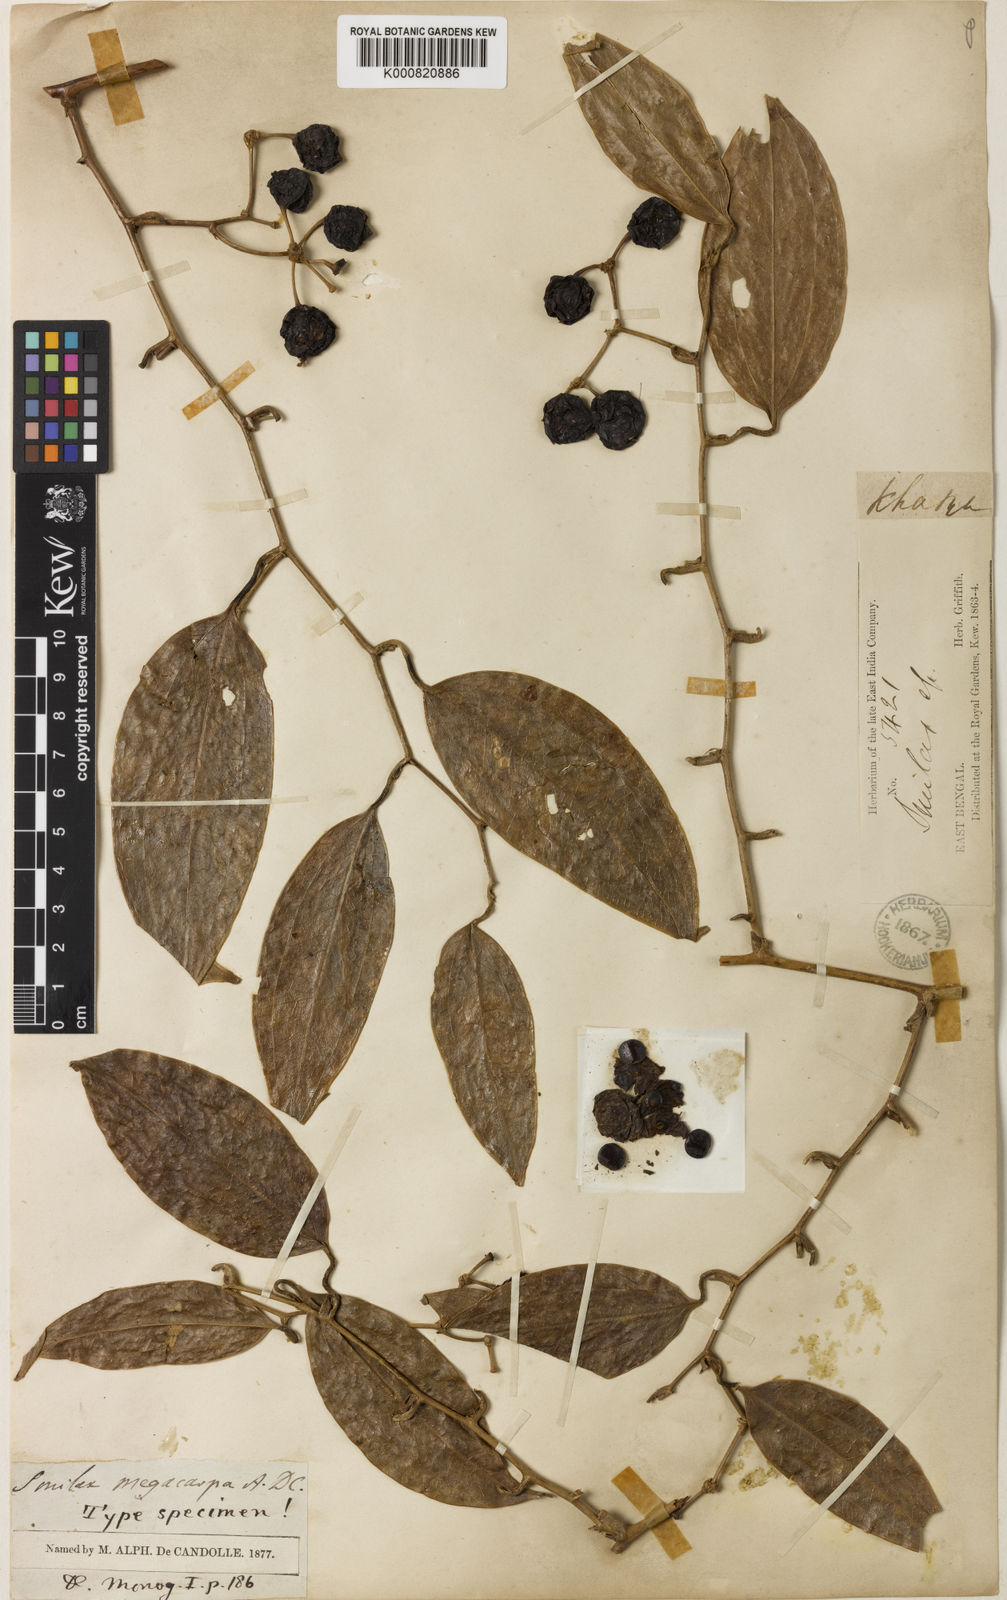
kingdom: Plantae
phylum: Tracheophyta
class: Liliopsida
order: Liliales
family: Smilacaceae
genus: Smilax
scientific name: Smilax megacarpa
